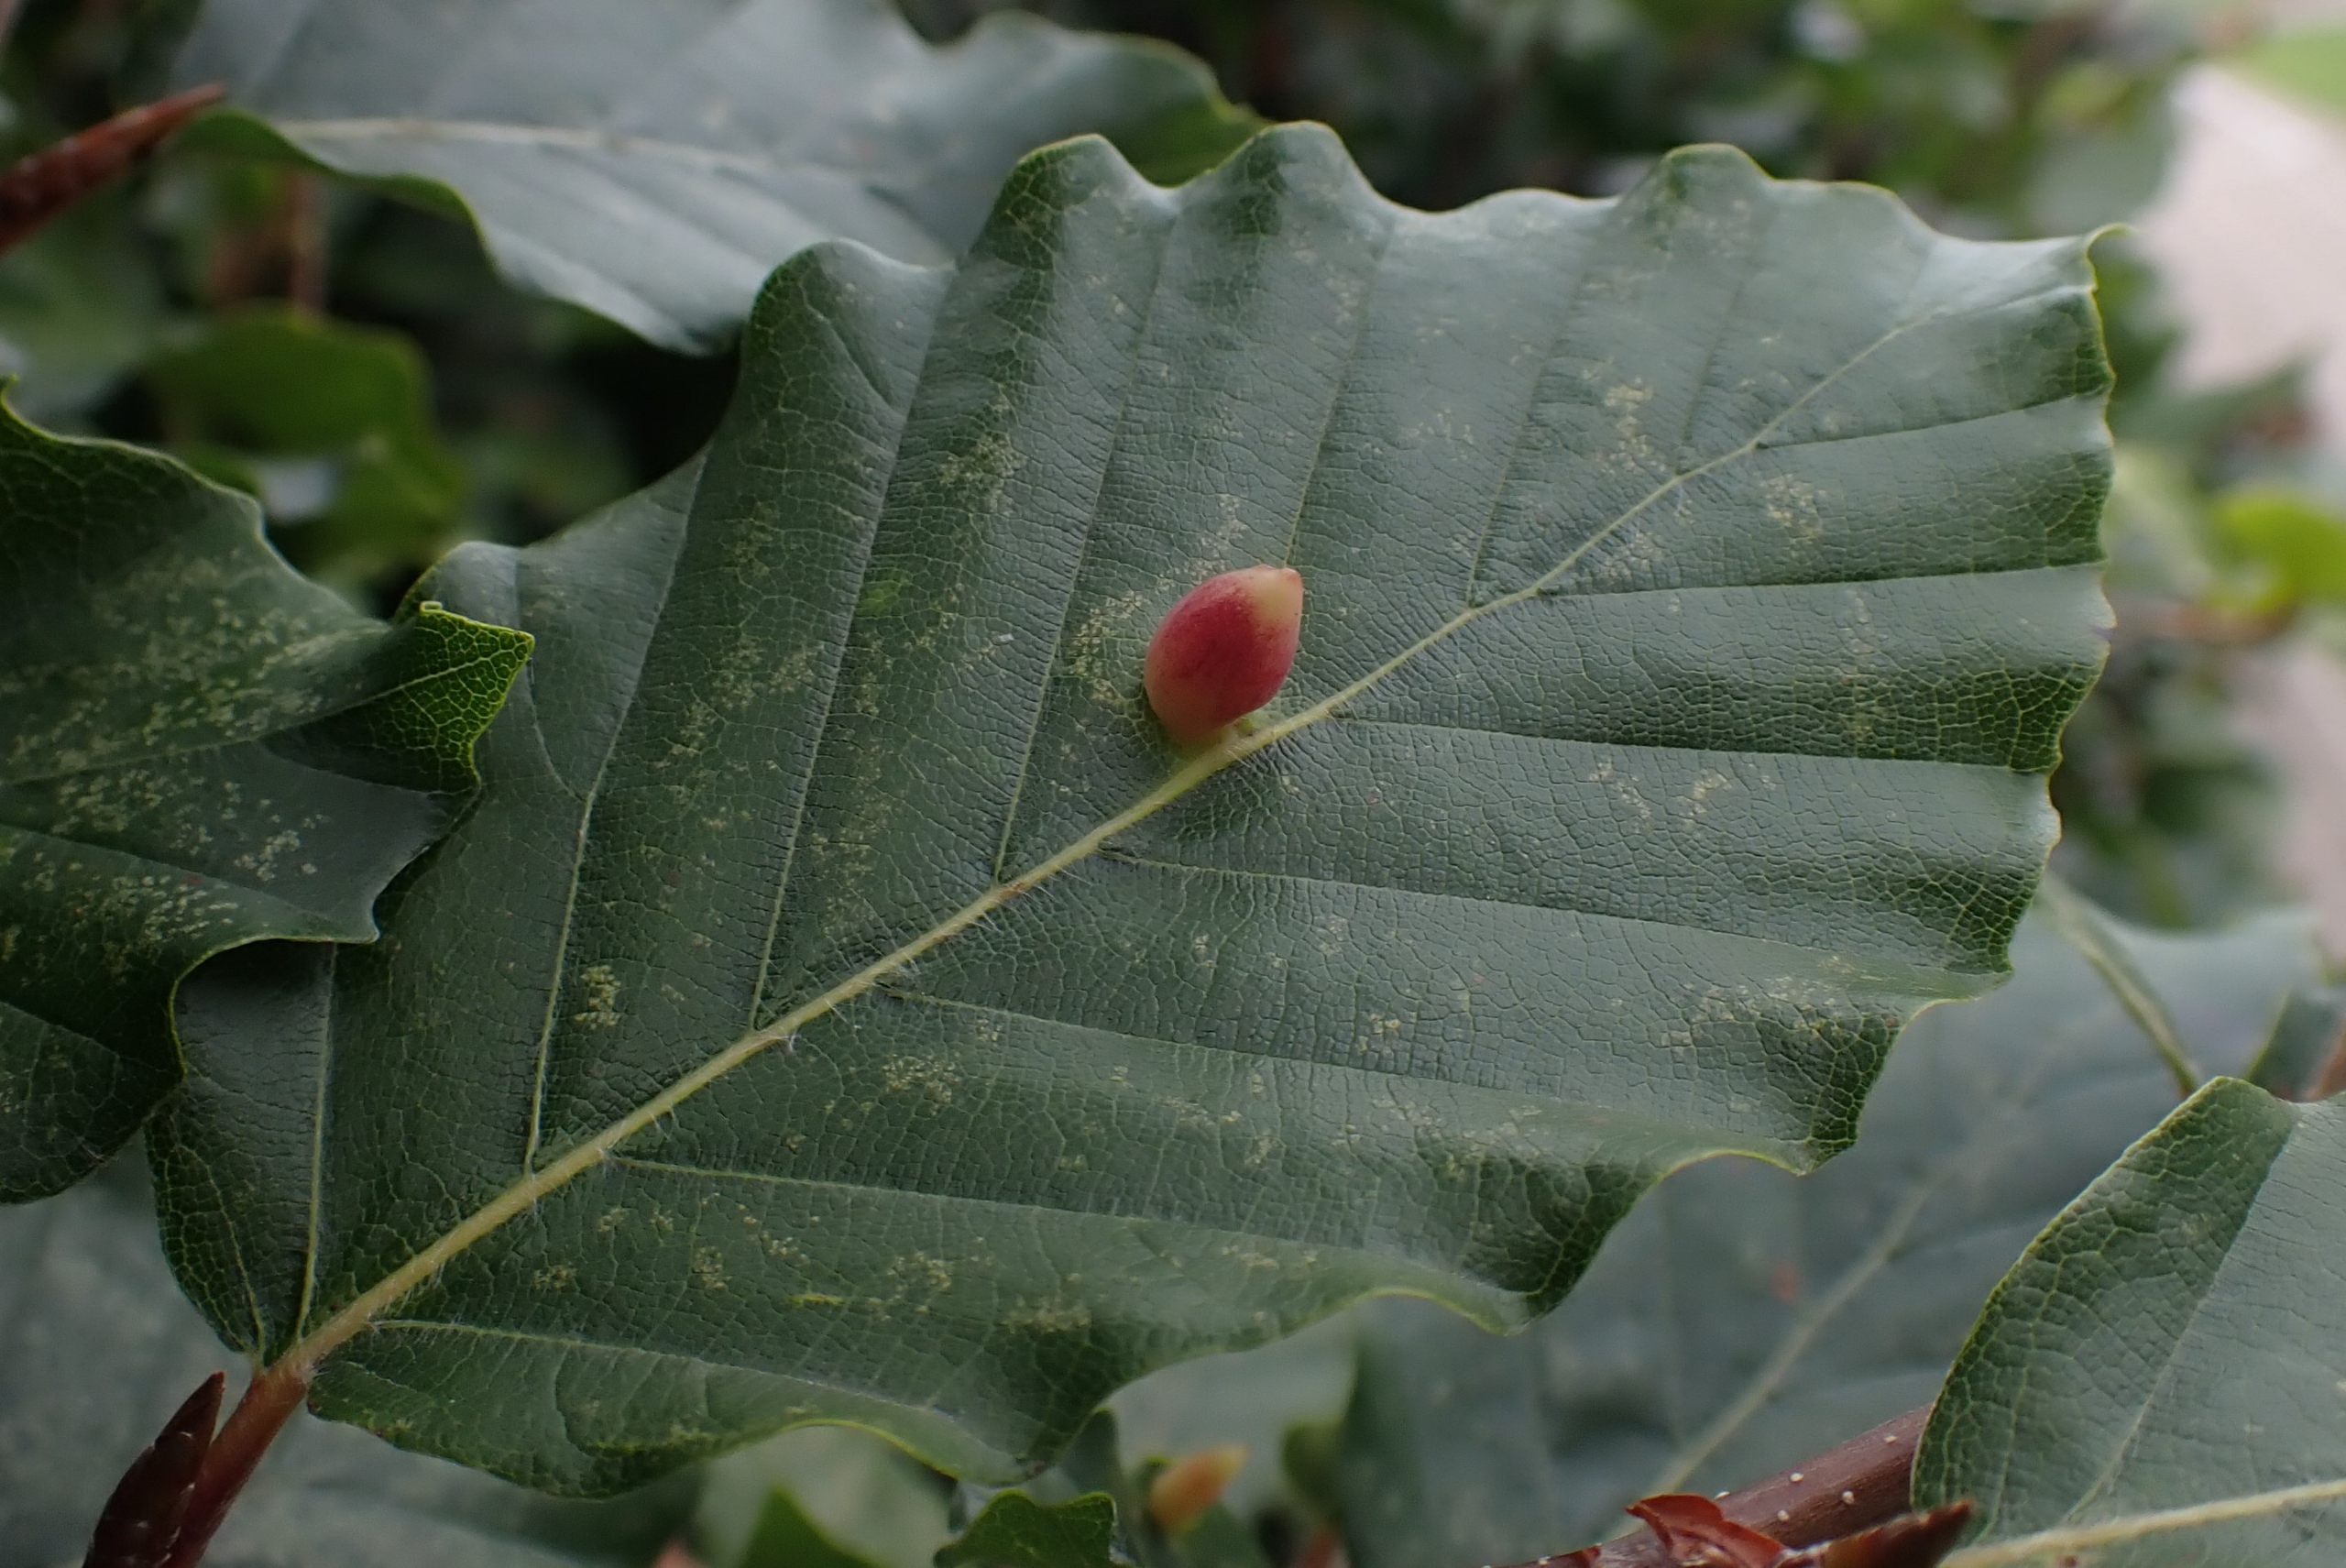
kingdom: Animalia
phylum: Arthropoda
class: Insecta
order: Diptera
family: Cecidomyiidae
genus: Mikiola
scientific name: Mikiola fagi
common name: Bøgegalmyg
